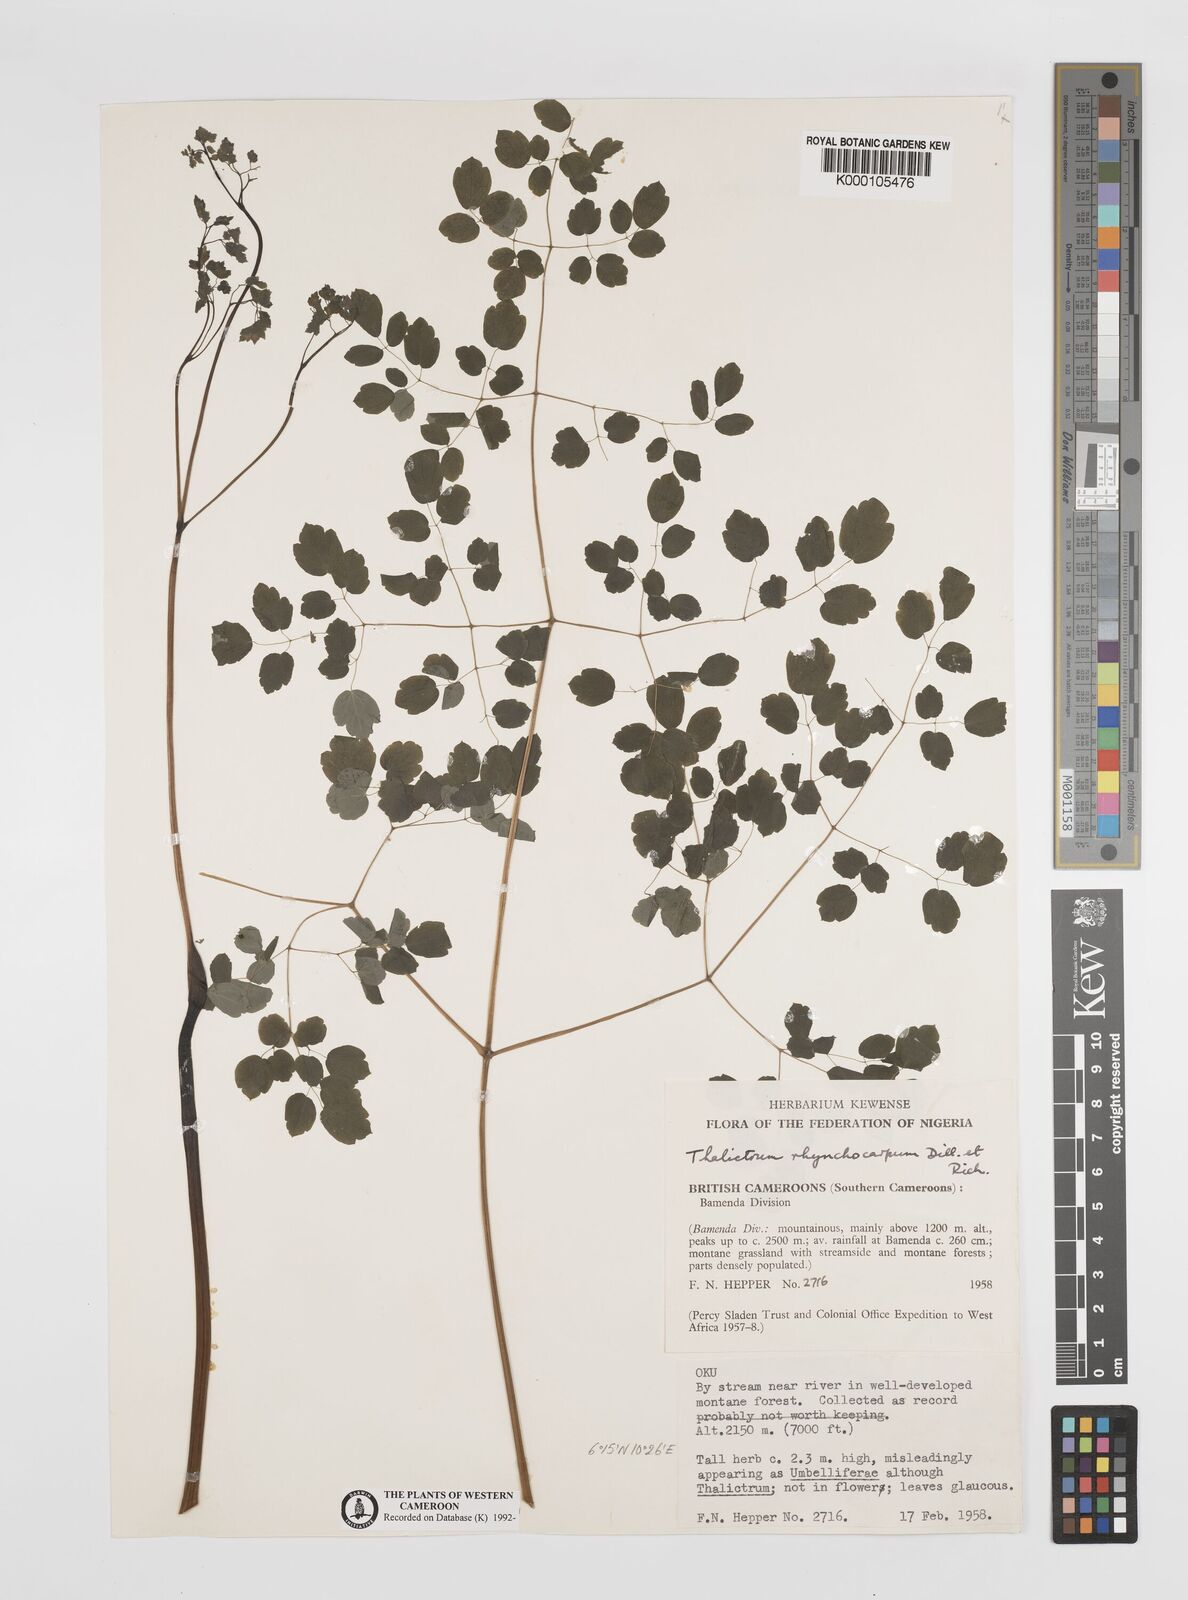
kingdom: Plantae
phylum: Tracheophyta
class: Magnoliopsida
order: Ranunculales
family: Ranunculaceae
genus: Thalictrum
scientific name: Thalictrum rhynchocarpum
